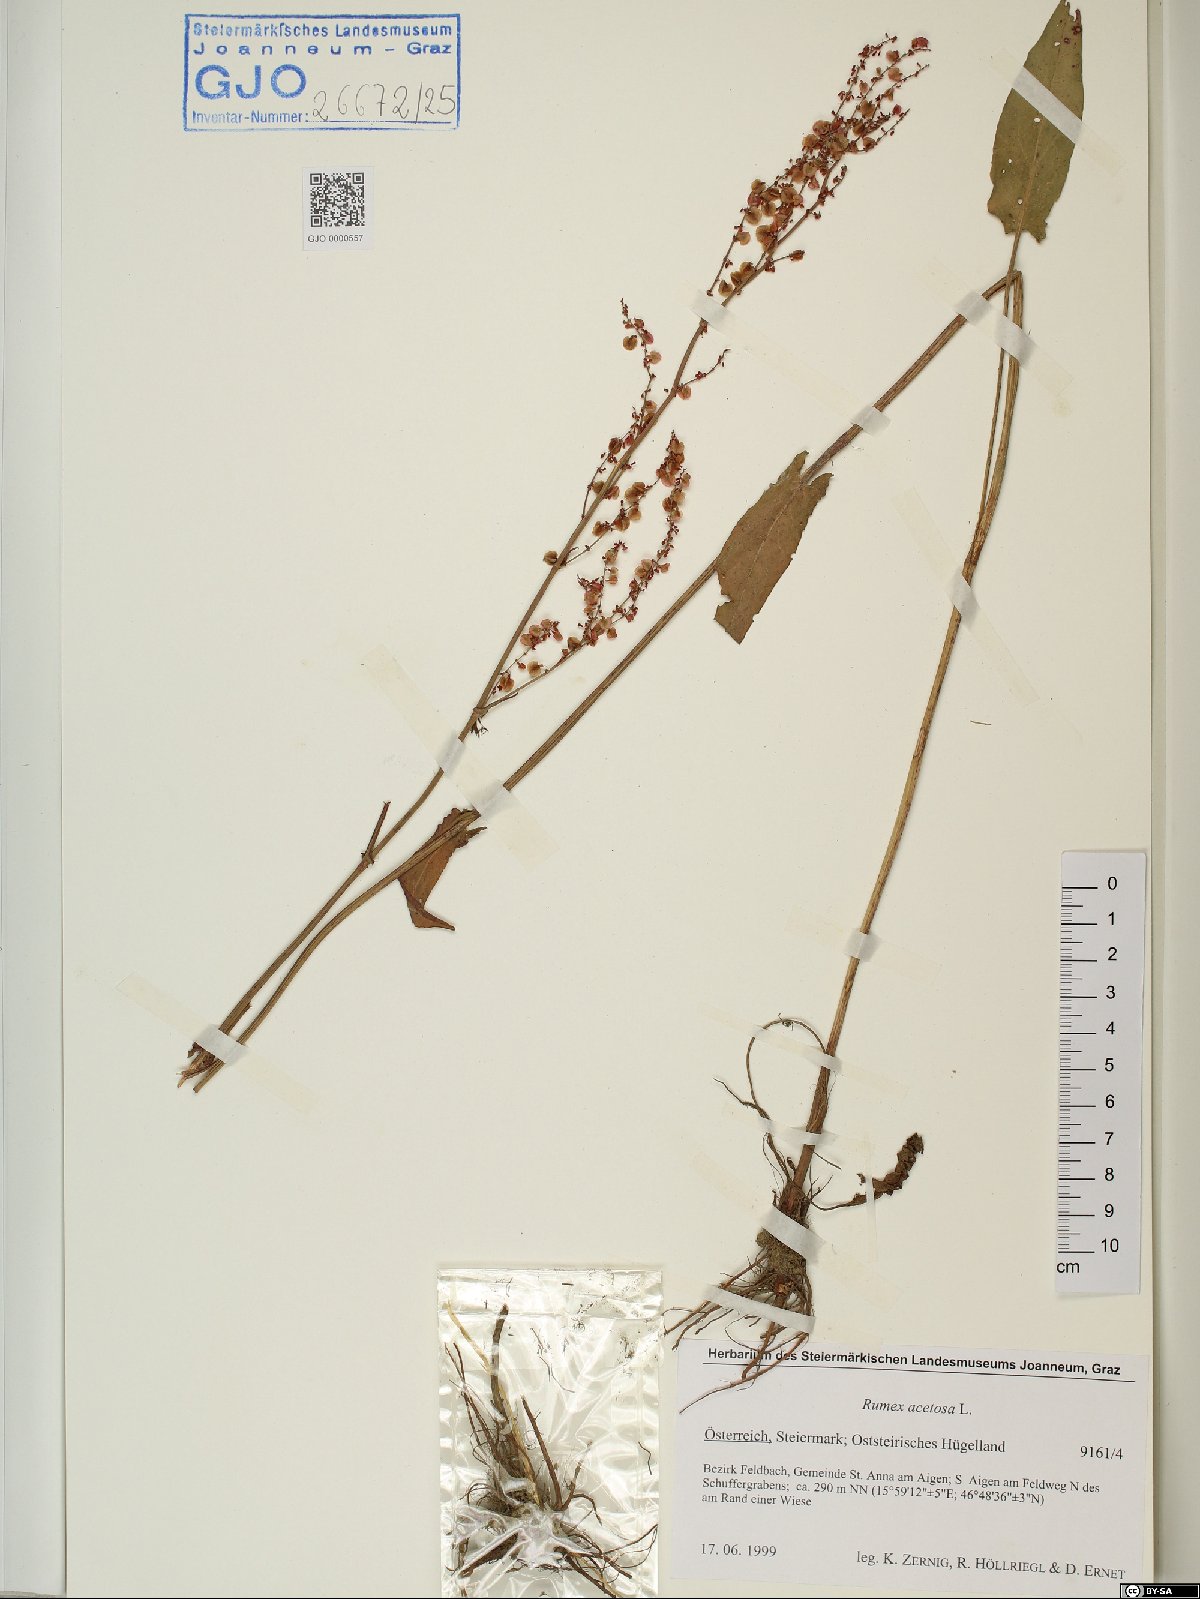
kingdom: Plantae
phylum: Tracheophyta
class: Magnoliopsida
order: Caryophyllales
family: Polygonaceae
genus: Rumex
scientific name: Rumex acetosa
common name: Garden sorrel
